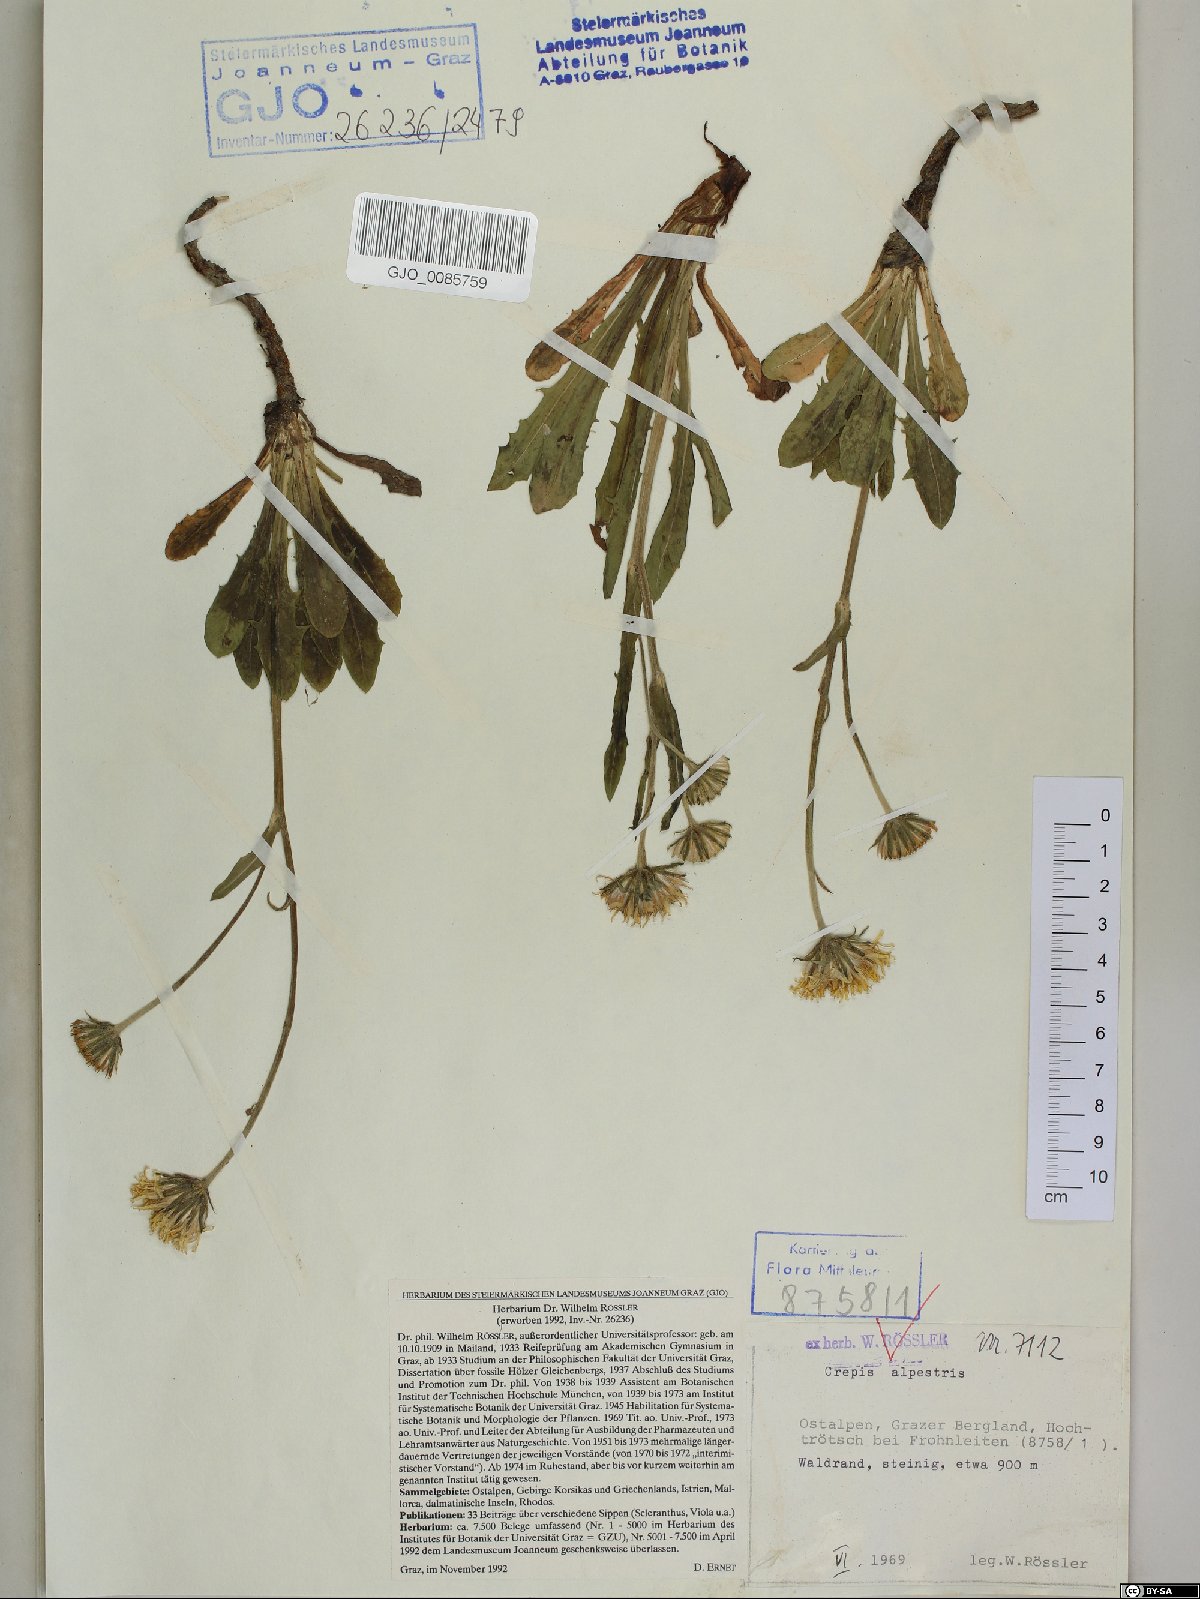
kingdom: Plantae
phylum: Tracheophyta
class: Magnoliopsida
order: Asterales
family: Asteraceae
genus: Crepis
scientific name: Crepis alpestris
